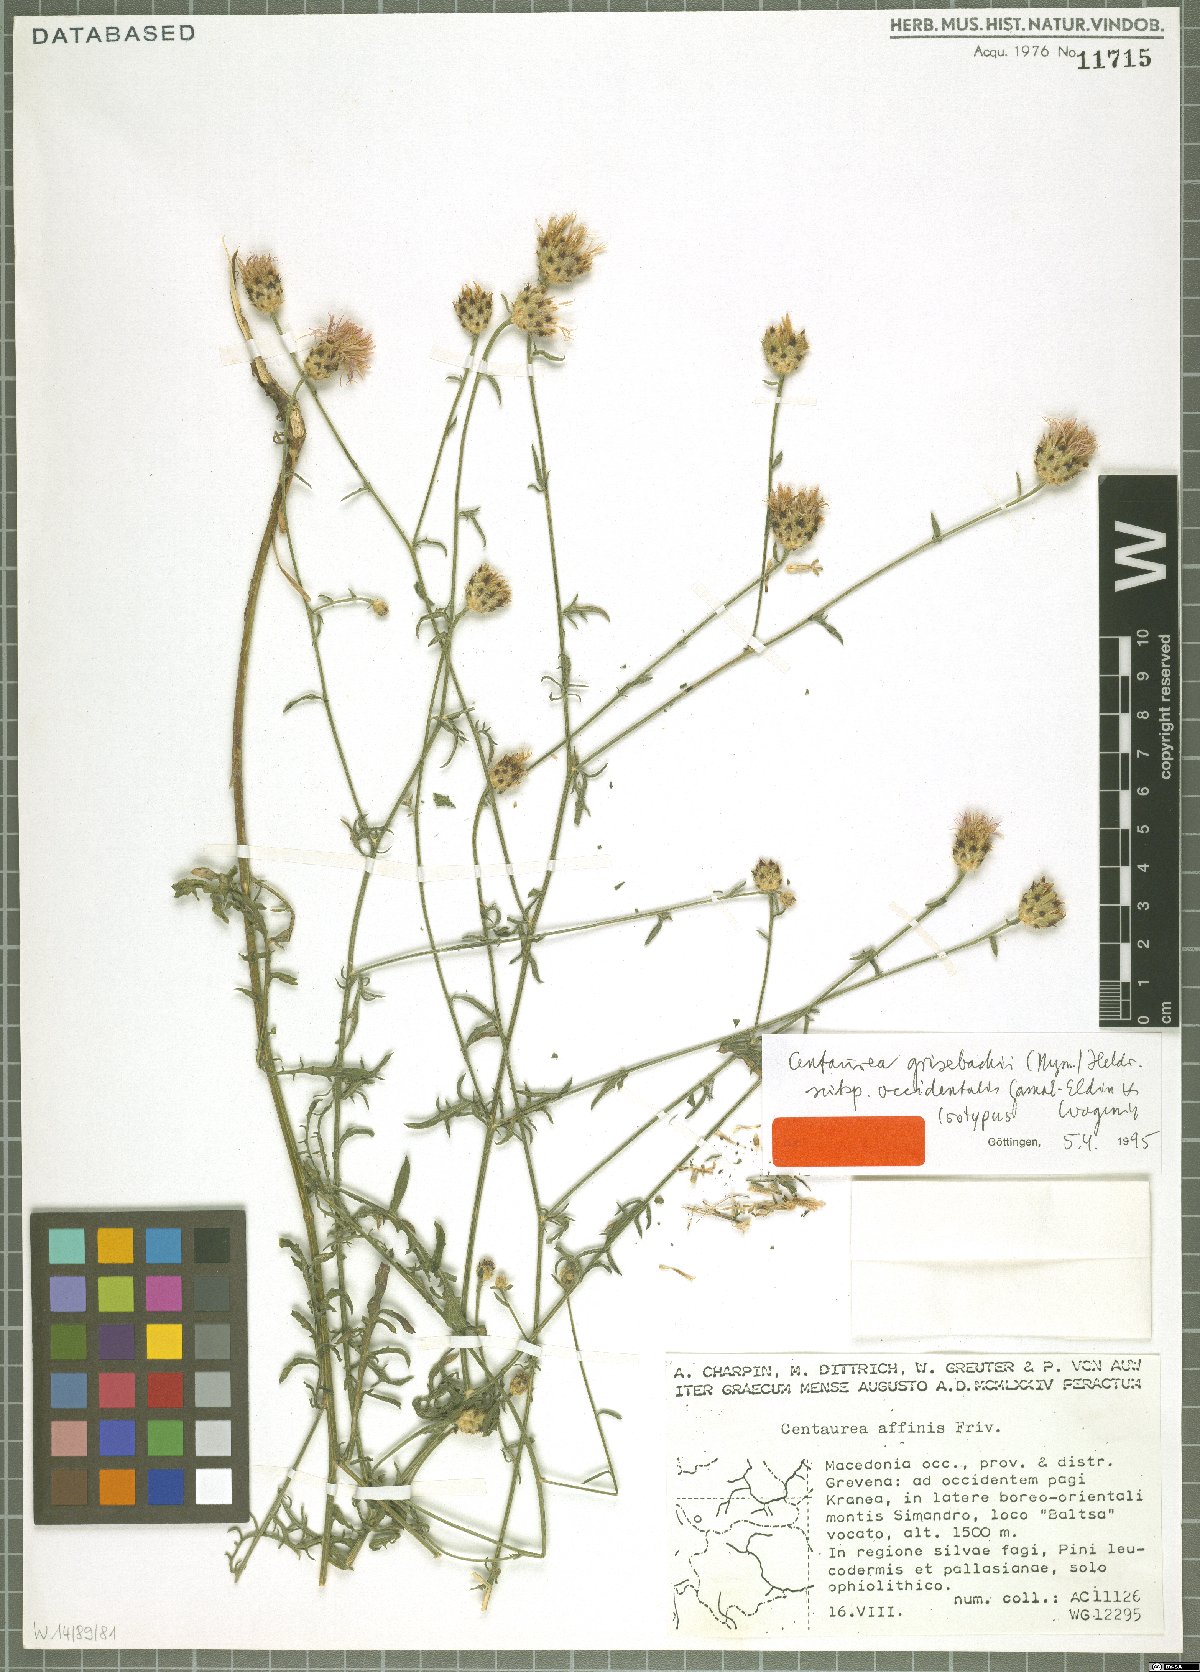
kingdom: Plantae
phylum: Tracheophyta
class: Magnoliopsida
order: Asterales
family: Asteraceae
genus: Centaurea
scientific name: Centaurea grisebachii
